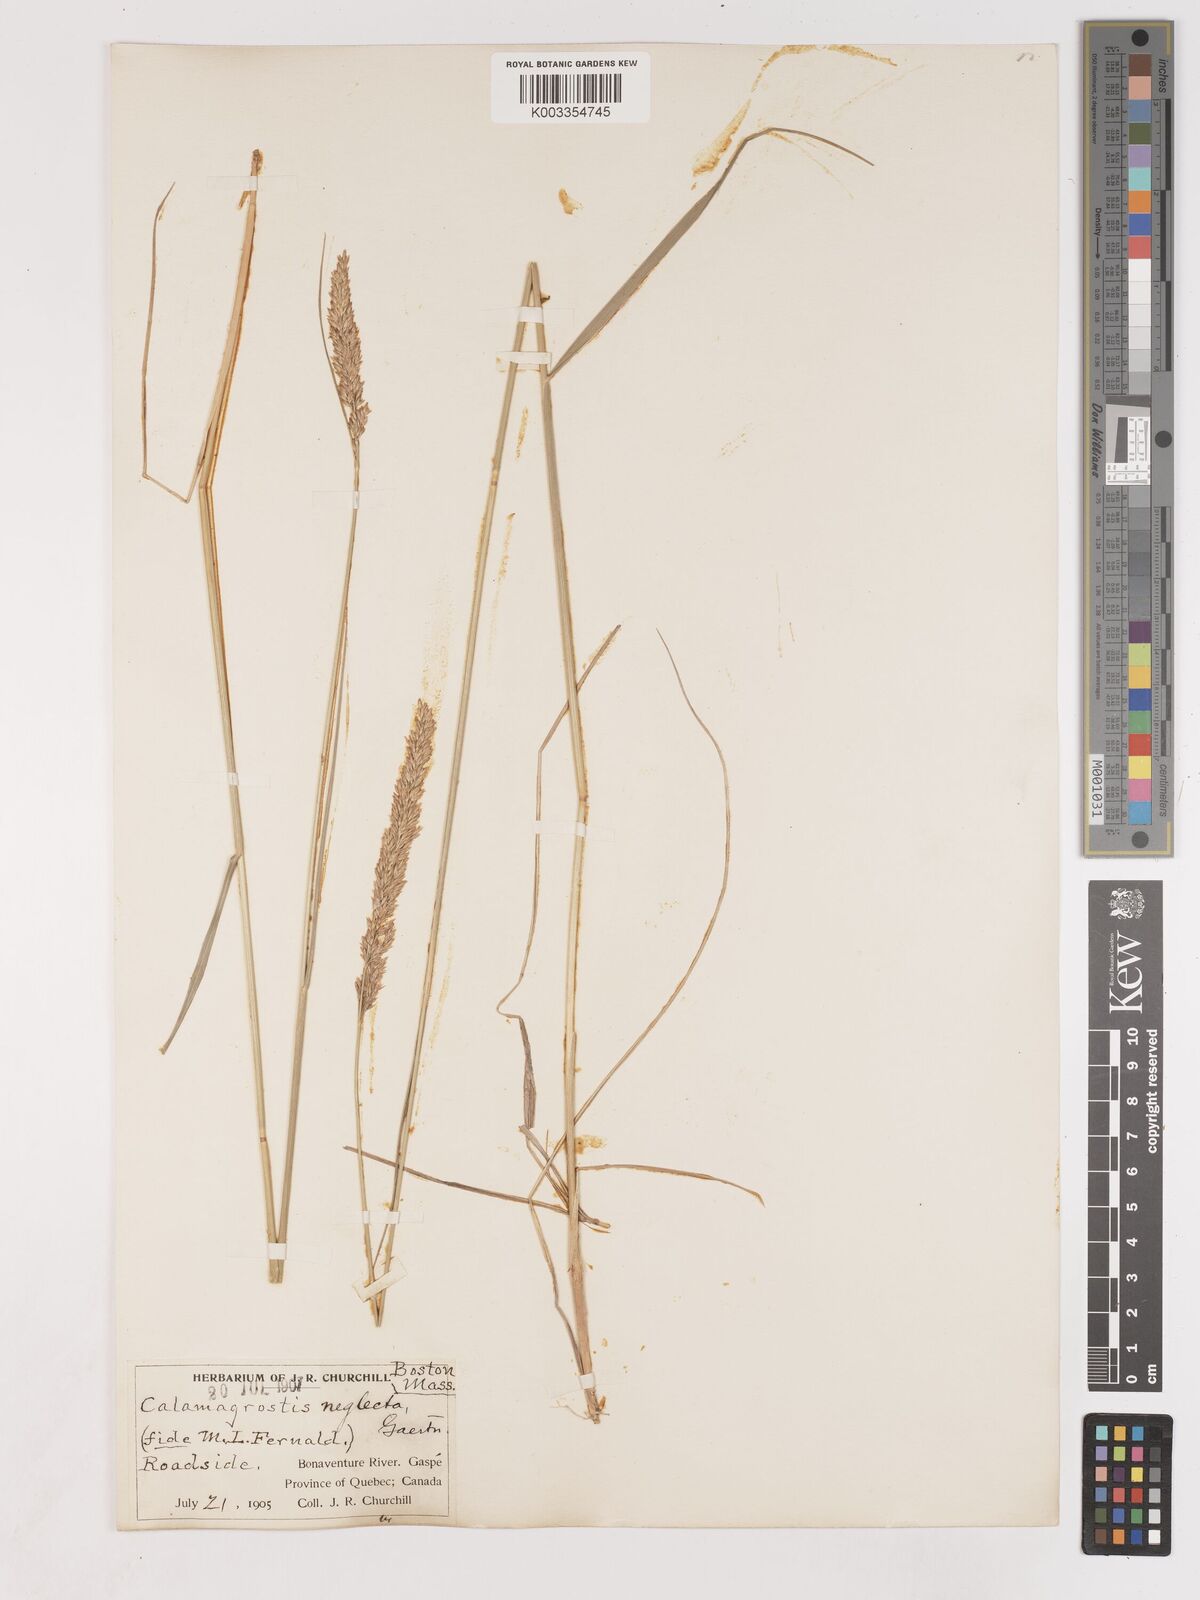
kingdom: Plantae
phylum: Tracheophyta
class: Liliopsida
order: Poales
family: Poaceae
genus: Cinnagrostis
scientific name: Cinnagrostis recta
